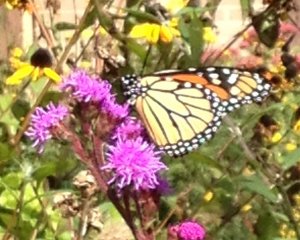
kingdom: Animalia
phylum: Arthropoda
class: Insecta
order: Lepidoptera
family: Nymphalidae
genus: Danaus
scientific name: Danaus plexippus
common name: Monarch
